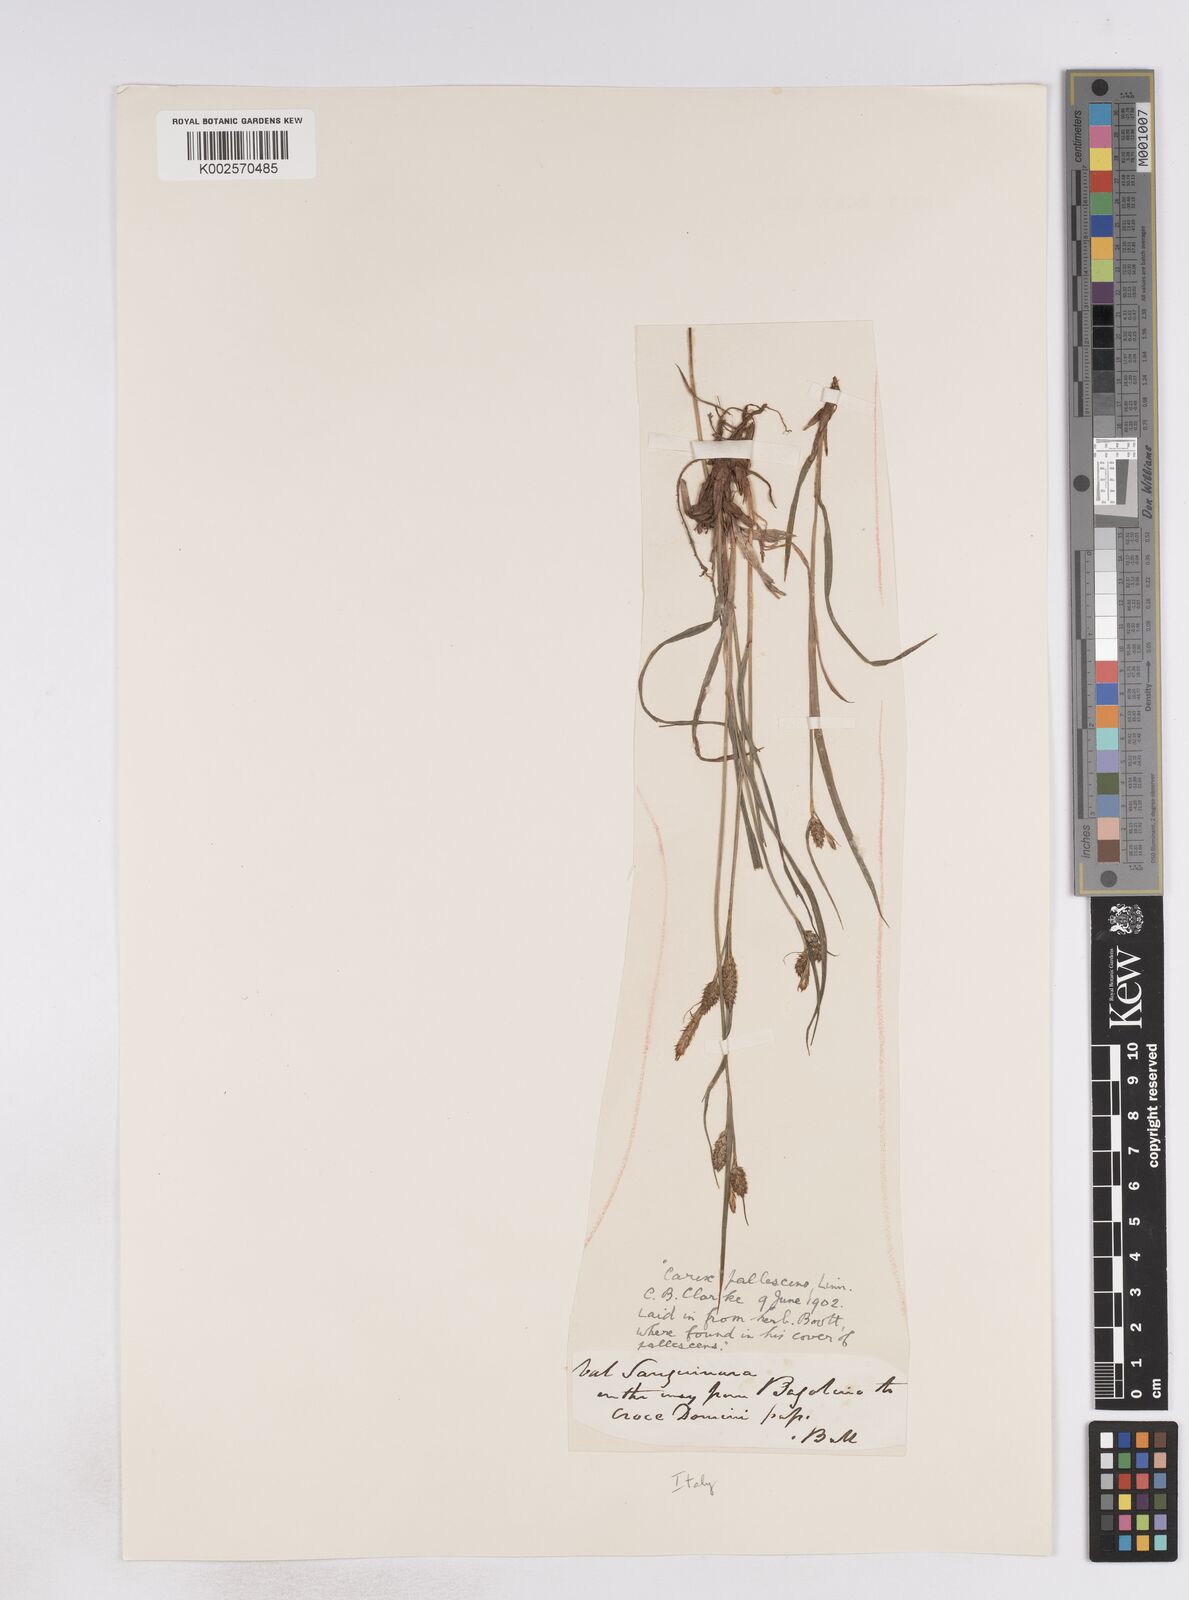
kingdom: Plantae
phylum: Tracheophyta
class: Liliopsida
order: Poales
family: Cyperaceae
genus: Carex
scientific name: Carex pallescens
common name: Pale sedge
